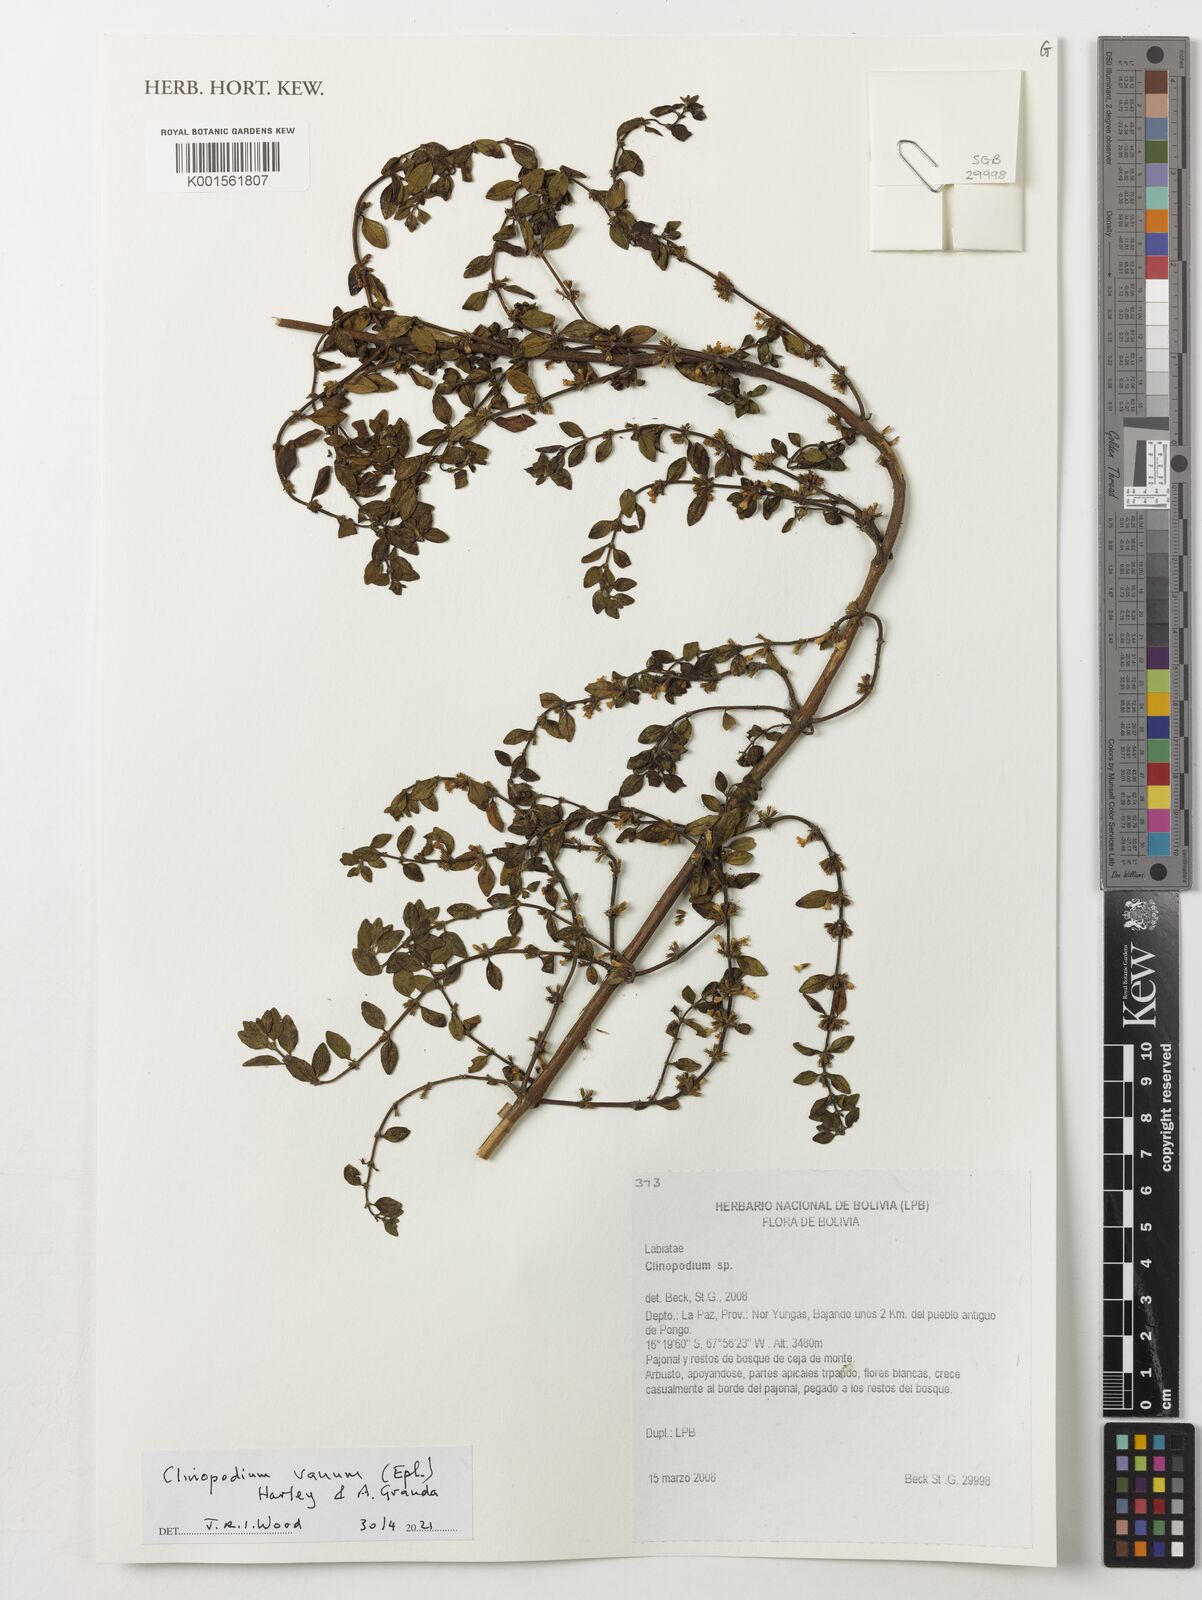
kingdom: Plantae
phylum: Tracheophyta
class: Magnoliopsida
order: Lamiales
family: Lamiaceae
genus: Clinopodium
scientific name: Clinopodium vanum
